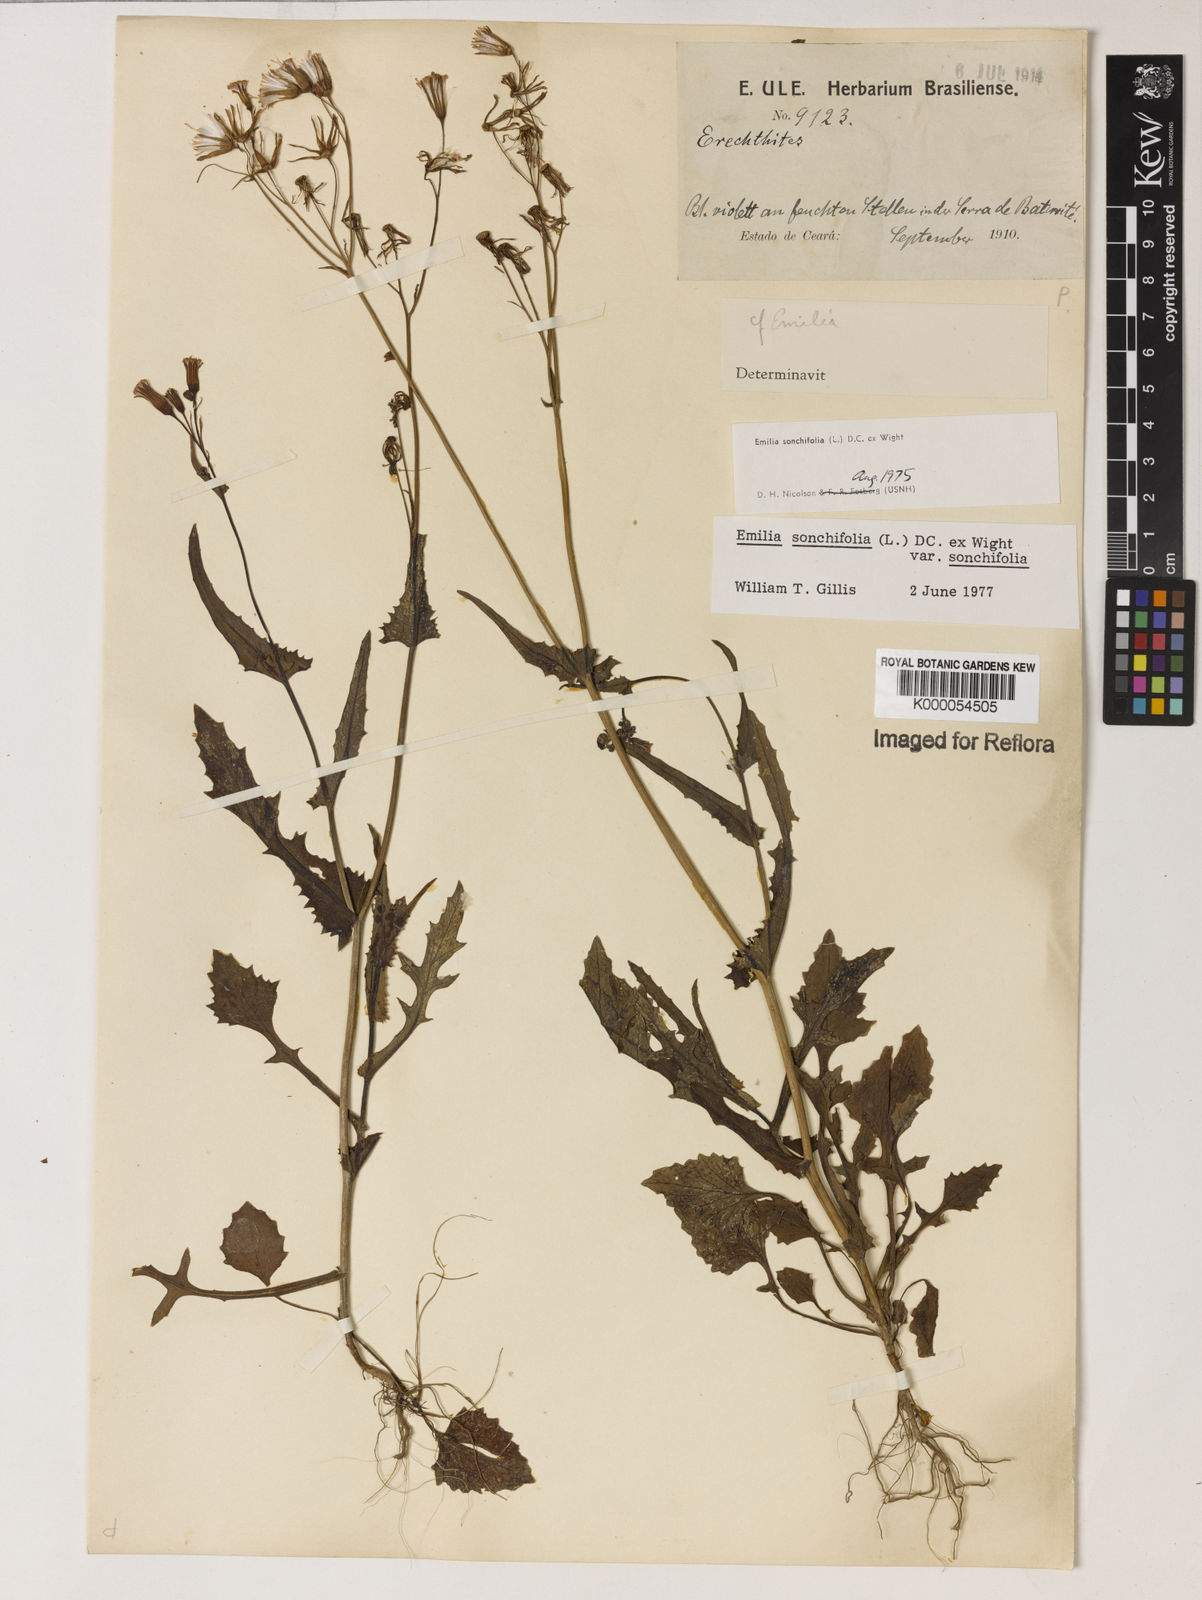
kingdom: Plantae
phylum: Tracheophyta
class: Magnoliopsida
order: Asterales
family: Asteraceae
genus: Emilia
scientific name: Emilia
